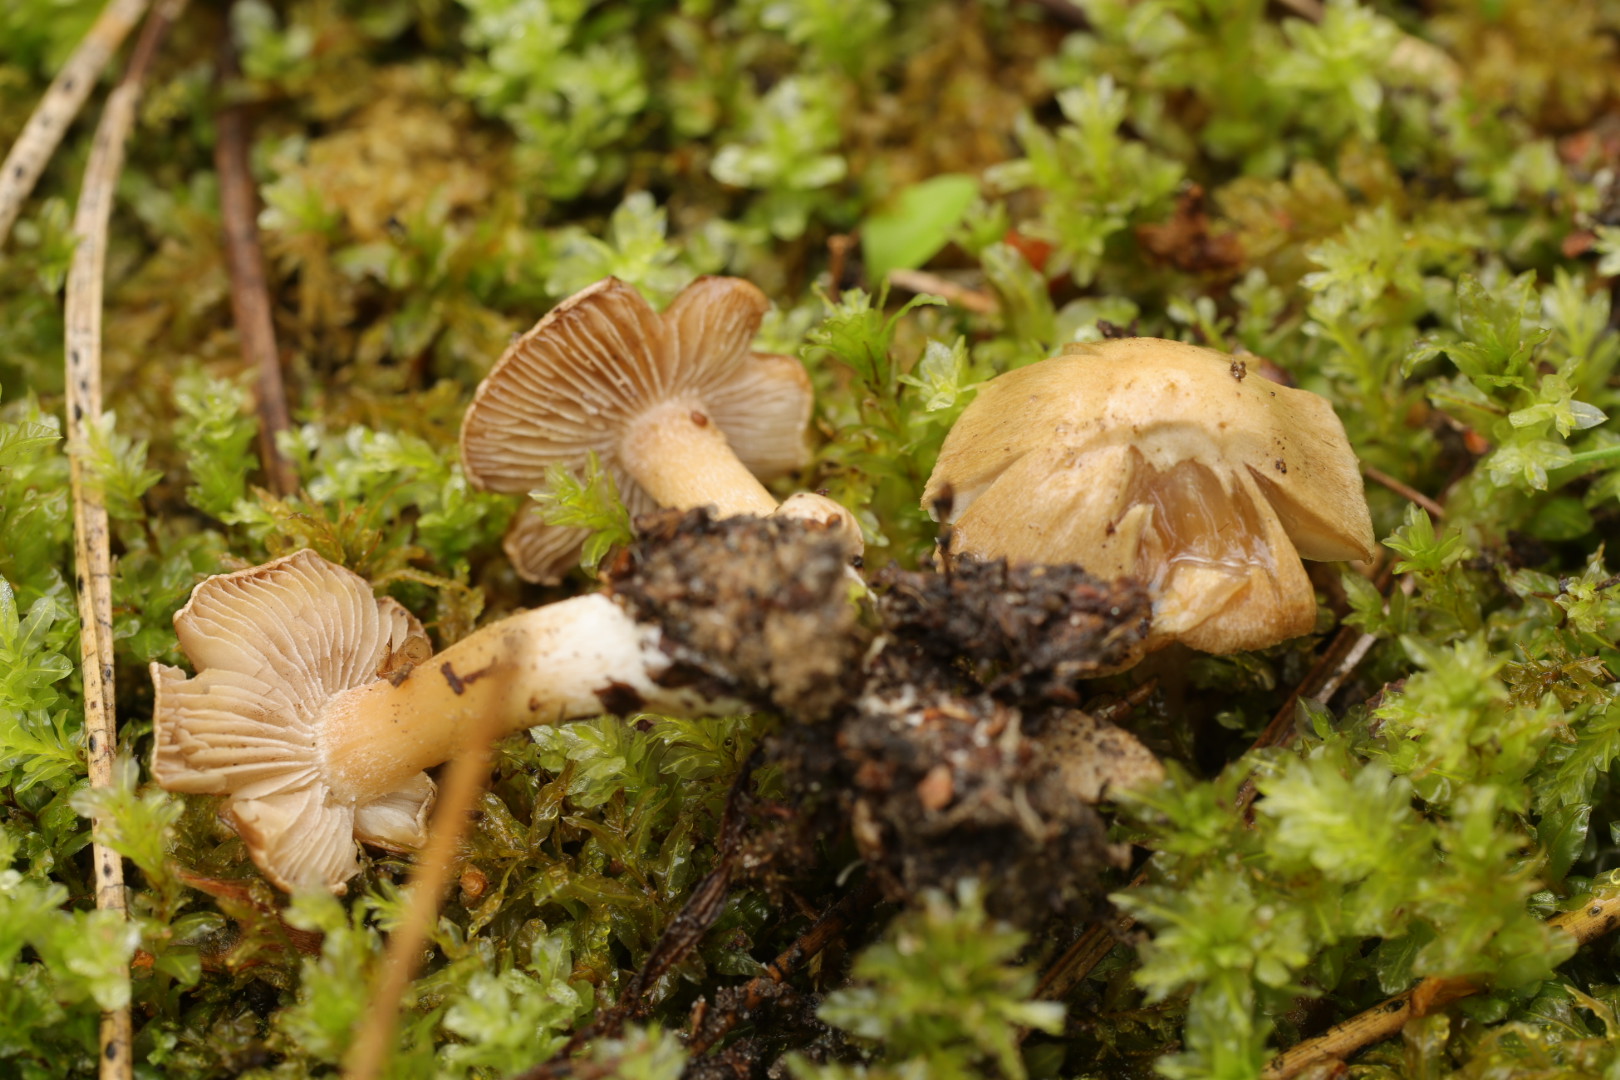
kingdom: Fungi
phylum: Basidiomycota
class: Agaricomycetes
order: Agaricales
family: Inocybaceae
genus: Inocybe
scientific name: Inocybe psammobrunnea
